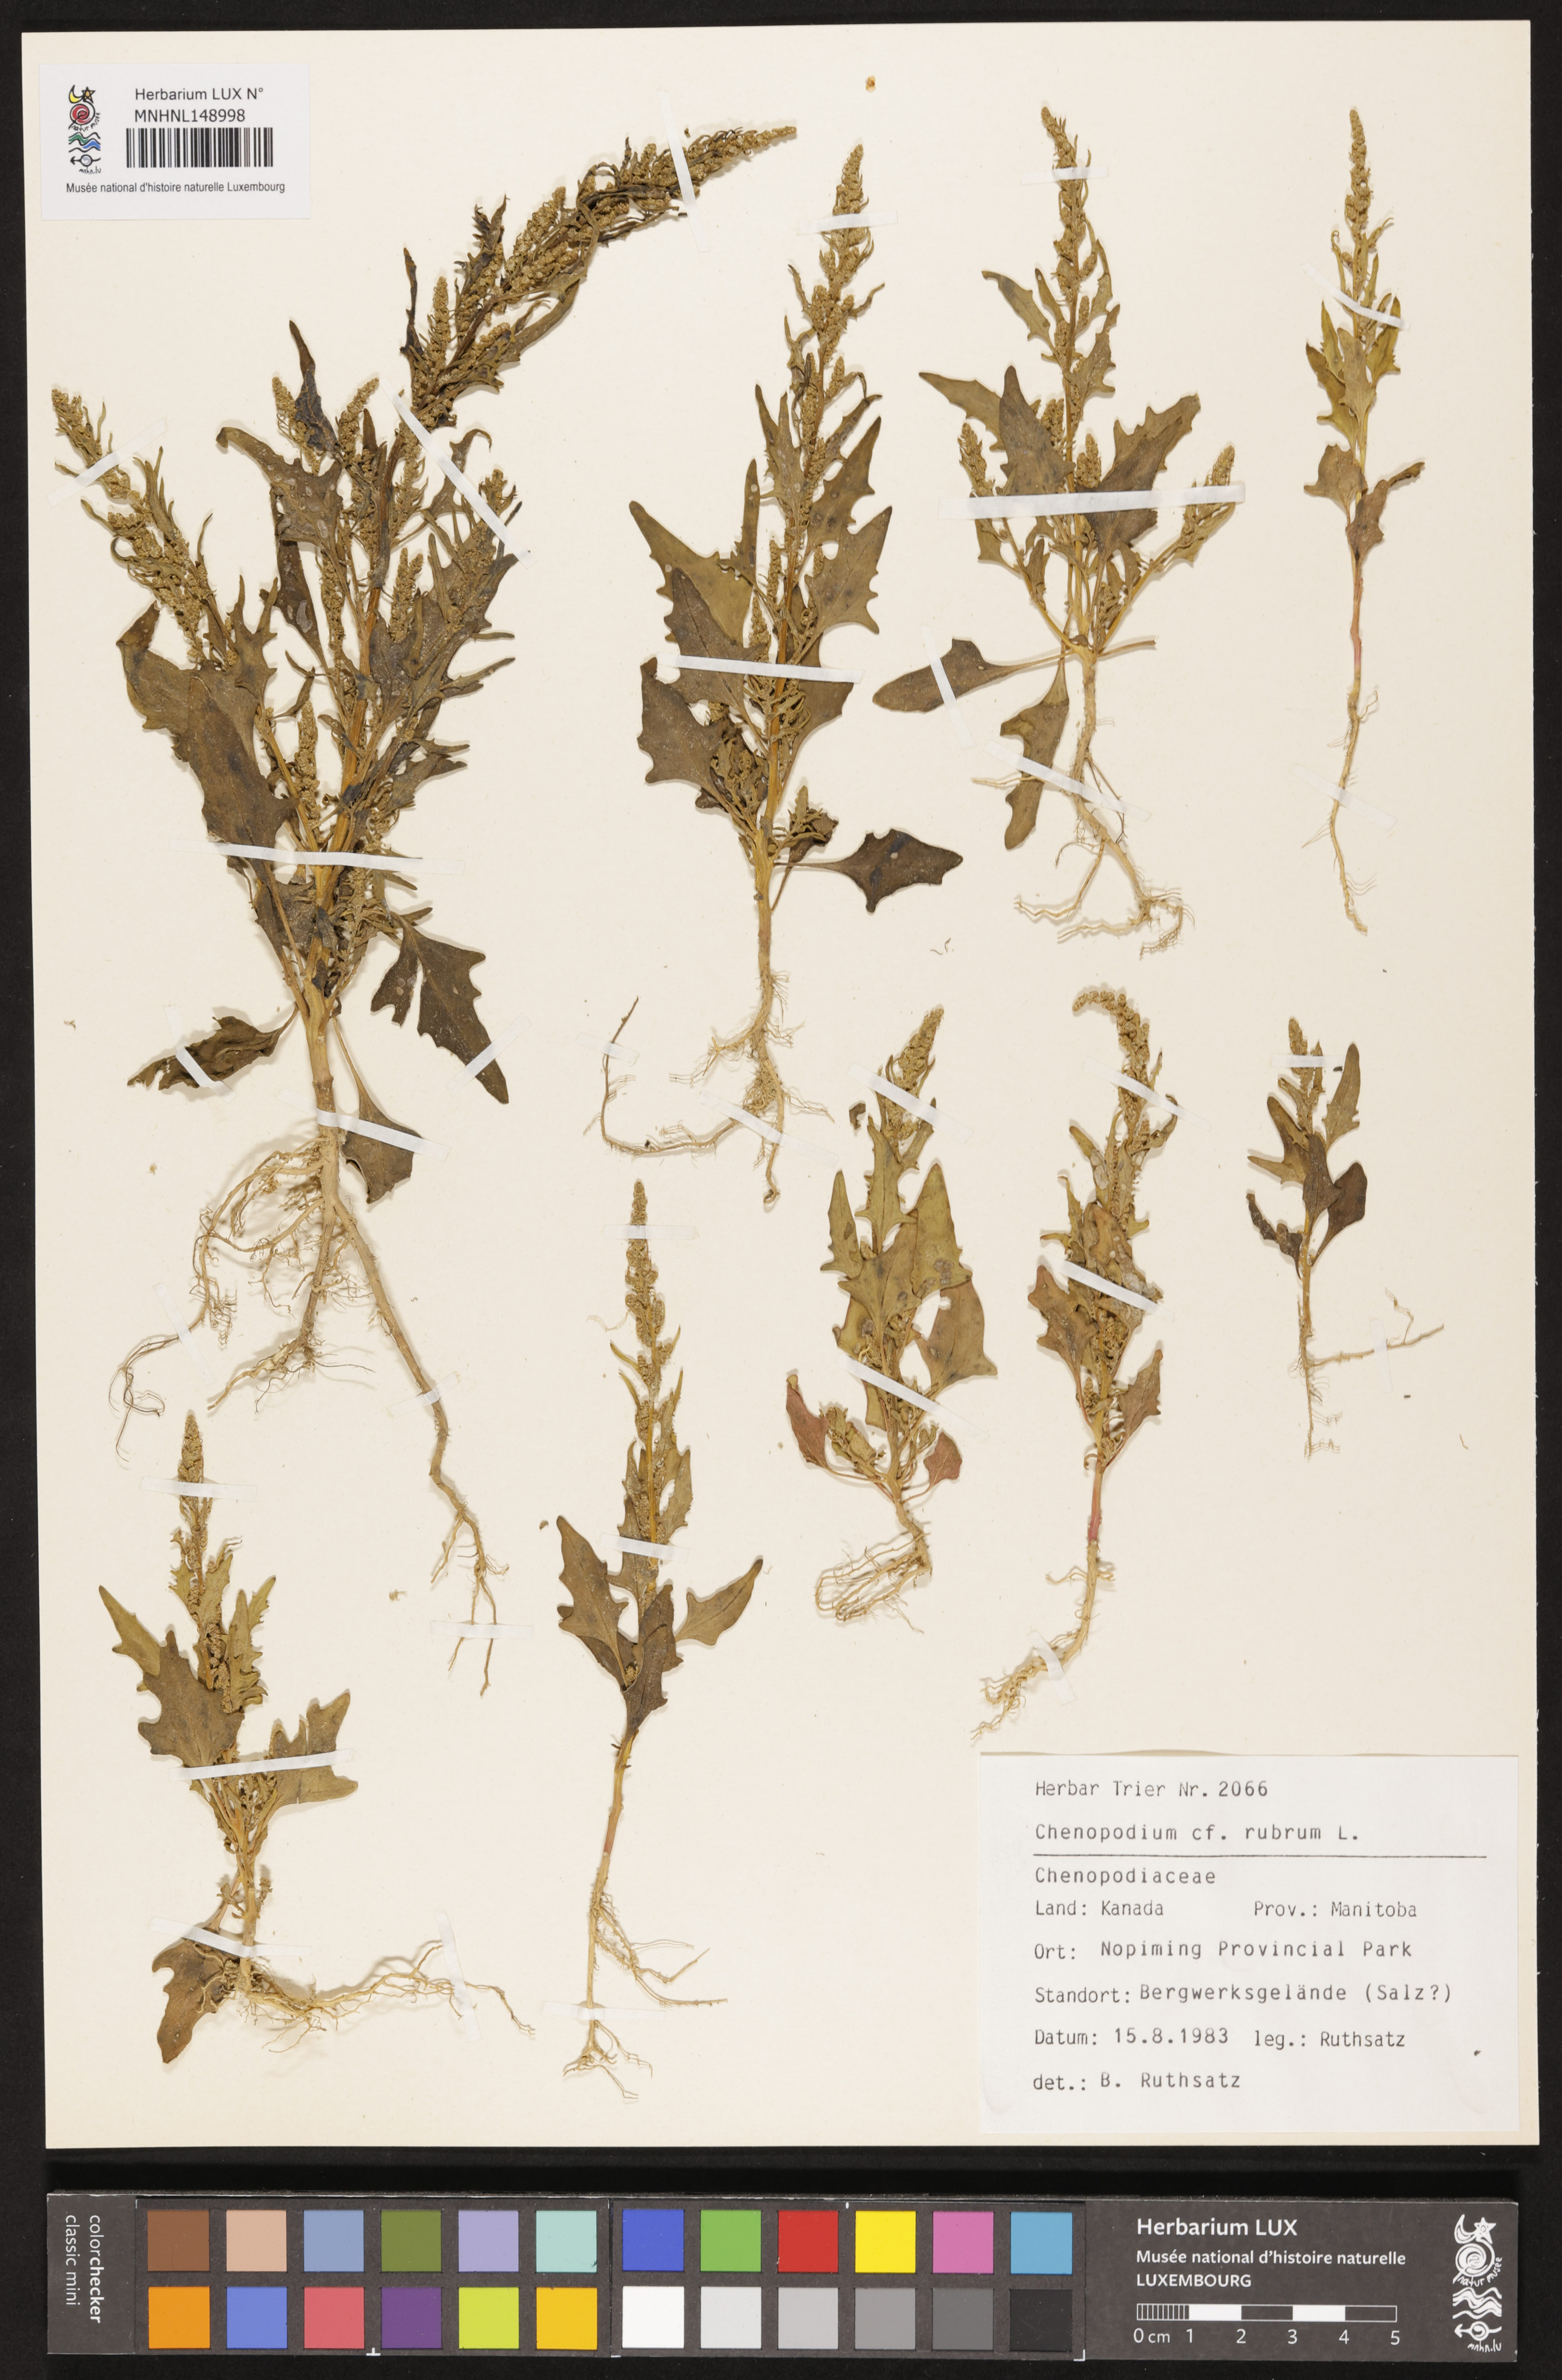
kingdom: Plantae
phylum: Tracheophyta
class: Magnoliopsida
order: Caryophyllales
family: Amaranthaceae
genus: Oxybasis
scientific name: Oxybasis rubra
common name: Red goosefoot
